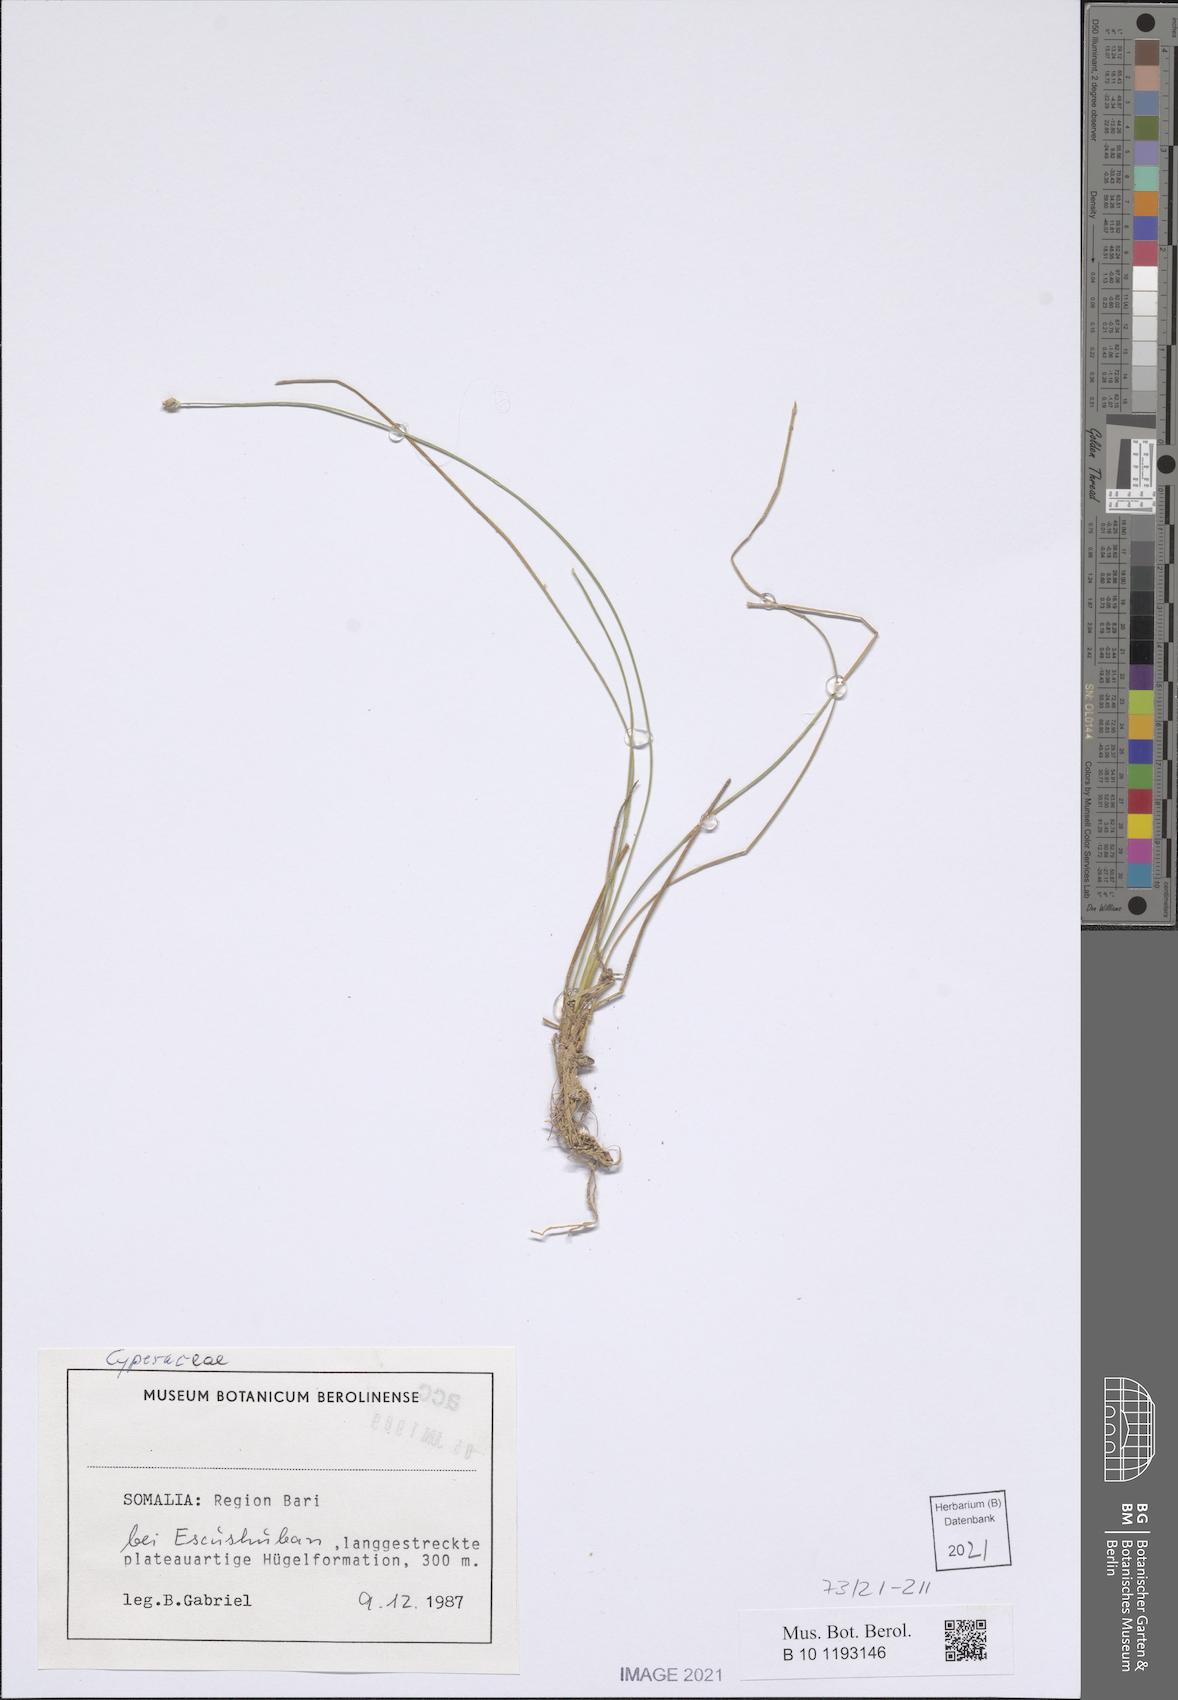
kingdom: Plantae
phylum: Tracheophyta
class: Liliopsida
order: Poales
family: Cyperaceae
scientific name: Cyperaceae
